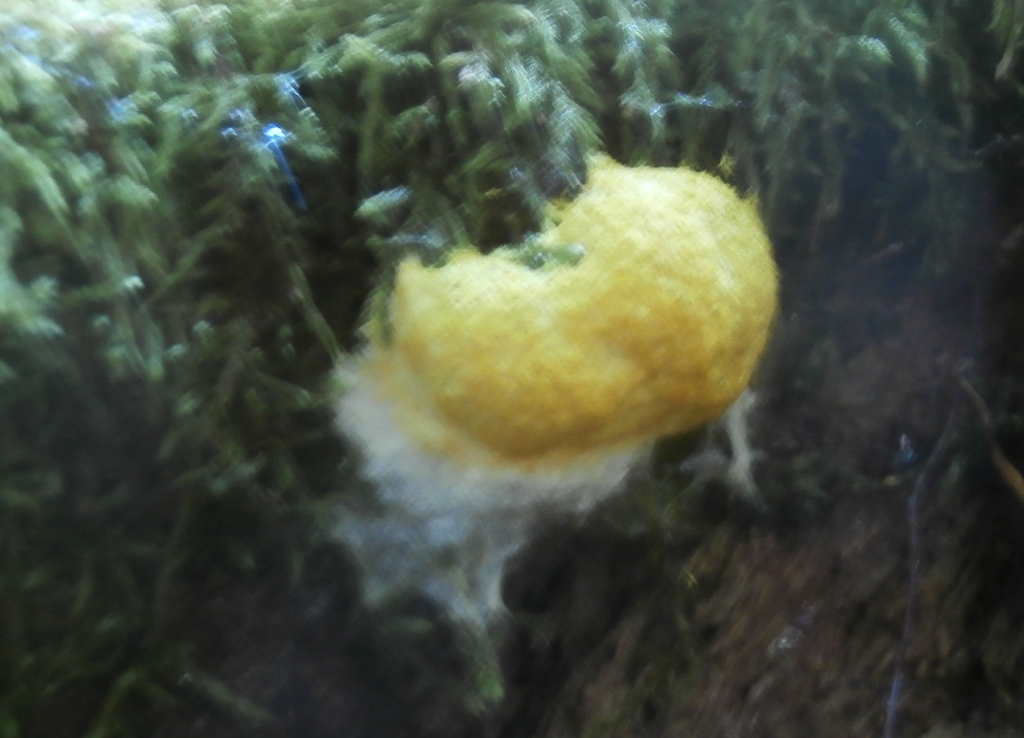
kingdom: Protozoa
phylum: Mycetozoa
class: Myxomycetes
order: Physarales
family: Physaraceae
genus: Fuligo
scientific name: Fuligo septica
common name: gul troldsmør
